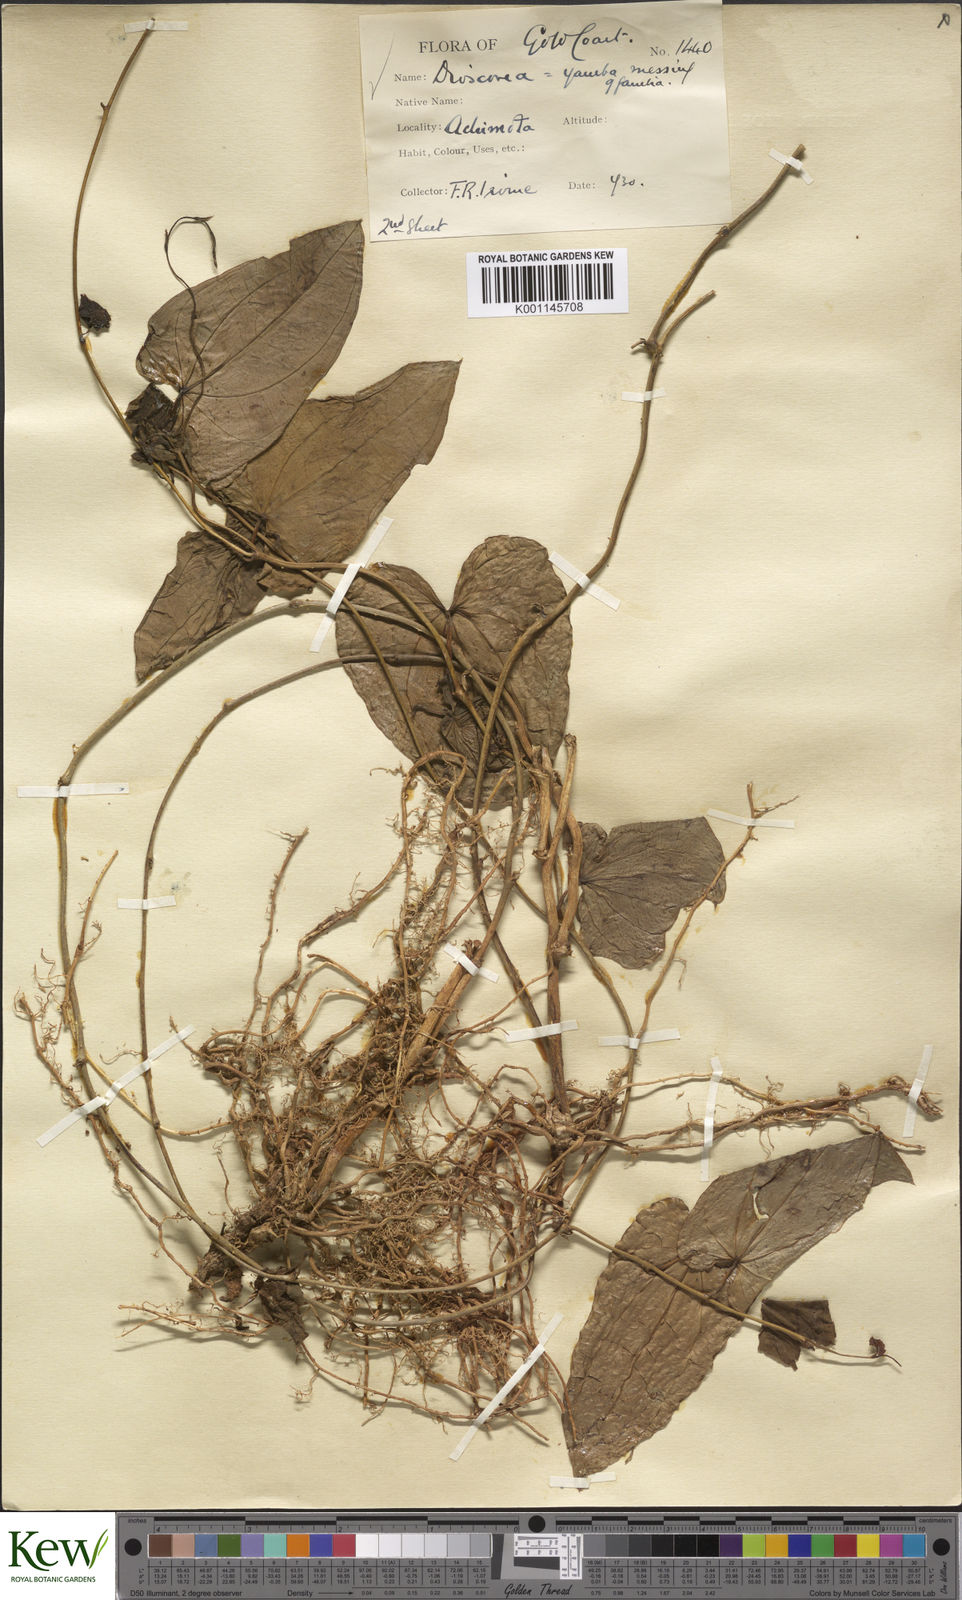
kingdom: Plantae
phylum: Tracheophyta
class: Liliopsida
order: Dioscoreales
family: Dioscoreaceae
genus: Dioscorea
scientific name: Dioscorea abyssinica
